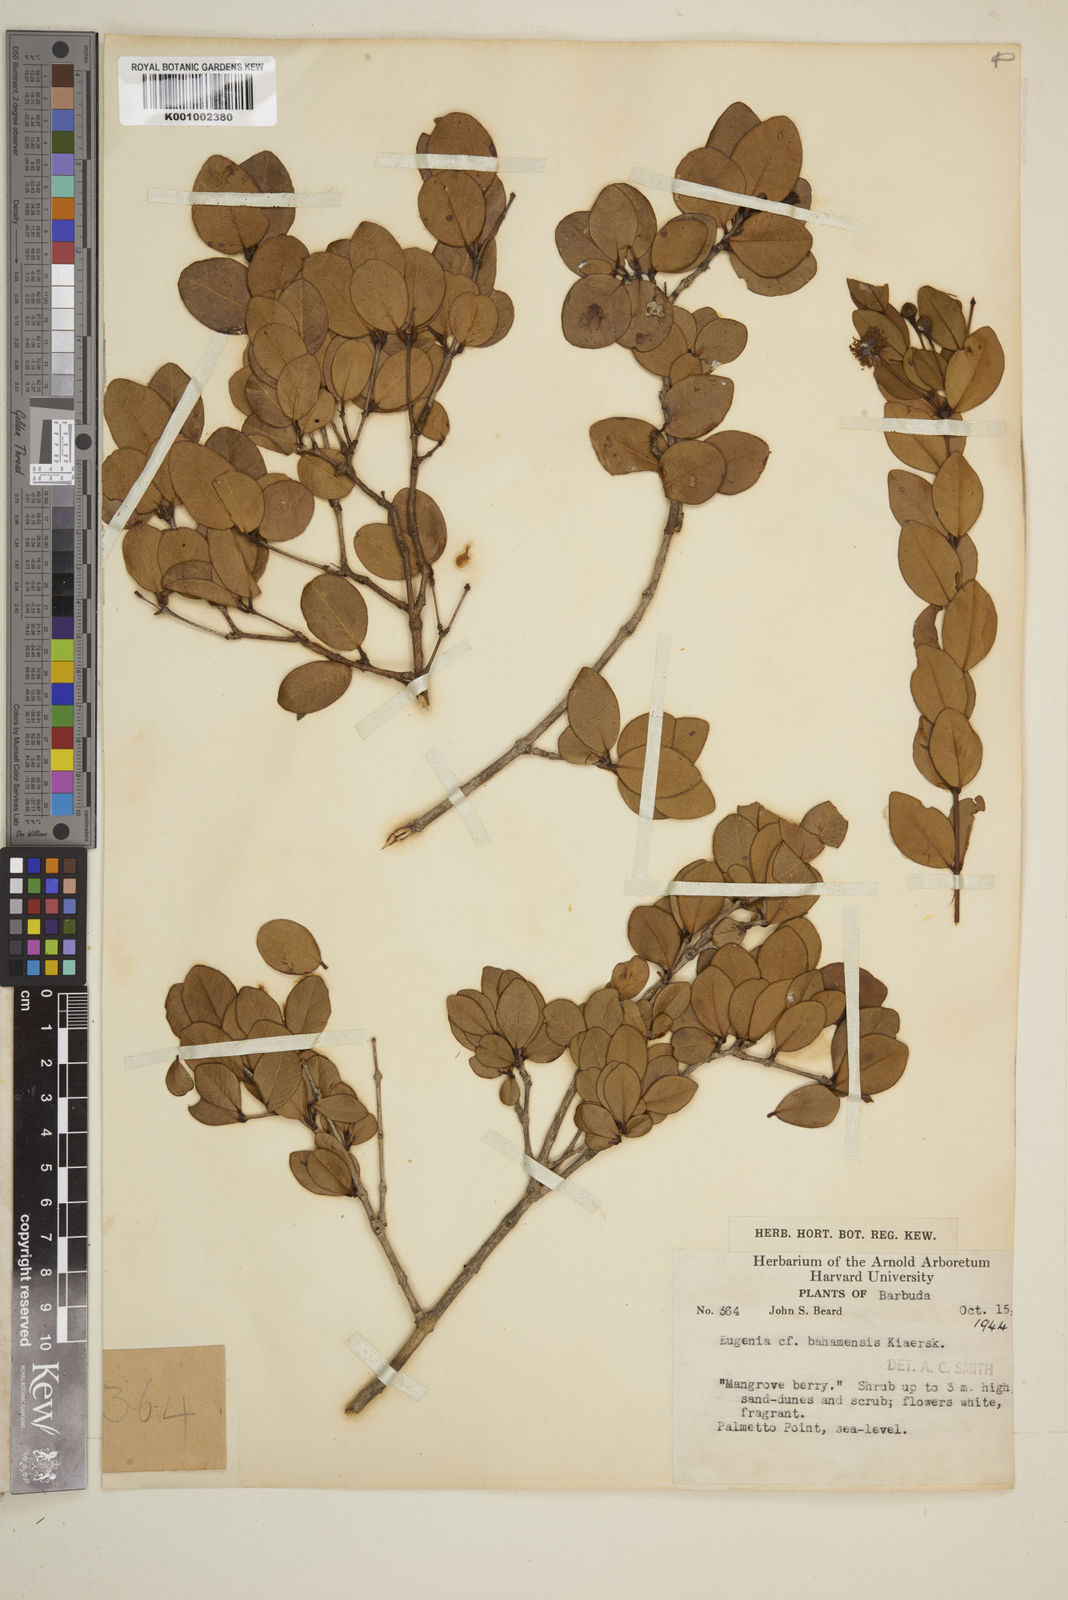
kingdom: Plantae
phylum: Tracheophyta
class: Magnoliopsida
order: Myrtales
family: Myrtaceae
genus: Mosiera
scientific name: Mosiera longipes
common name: Bahama stopper
